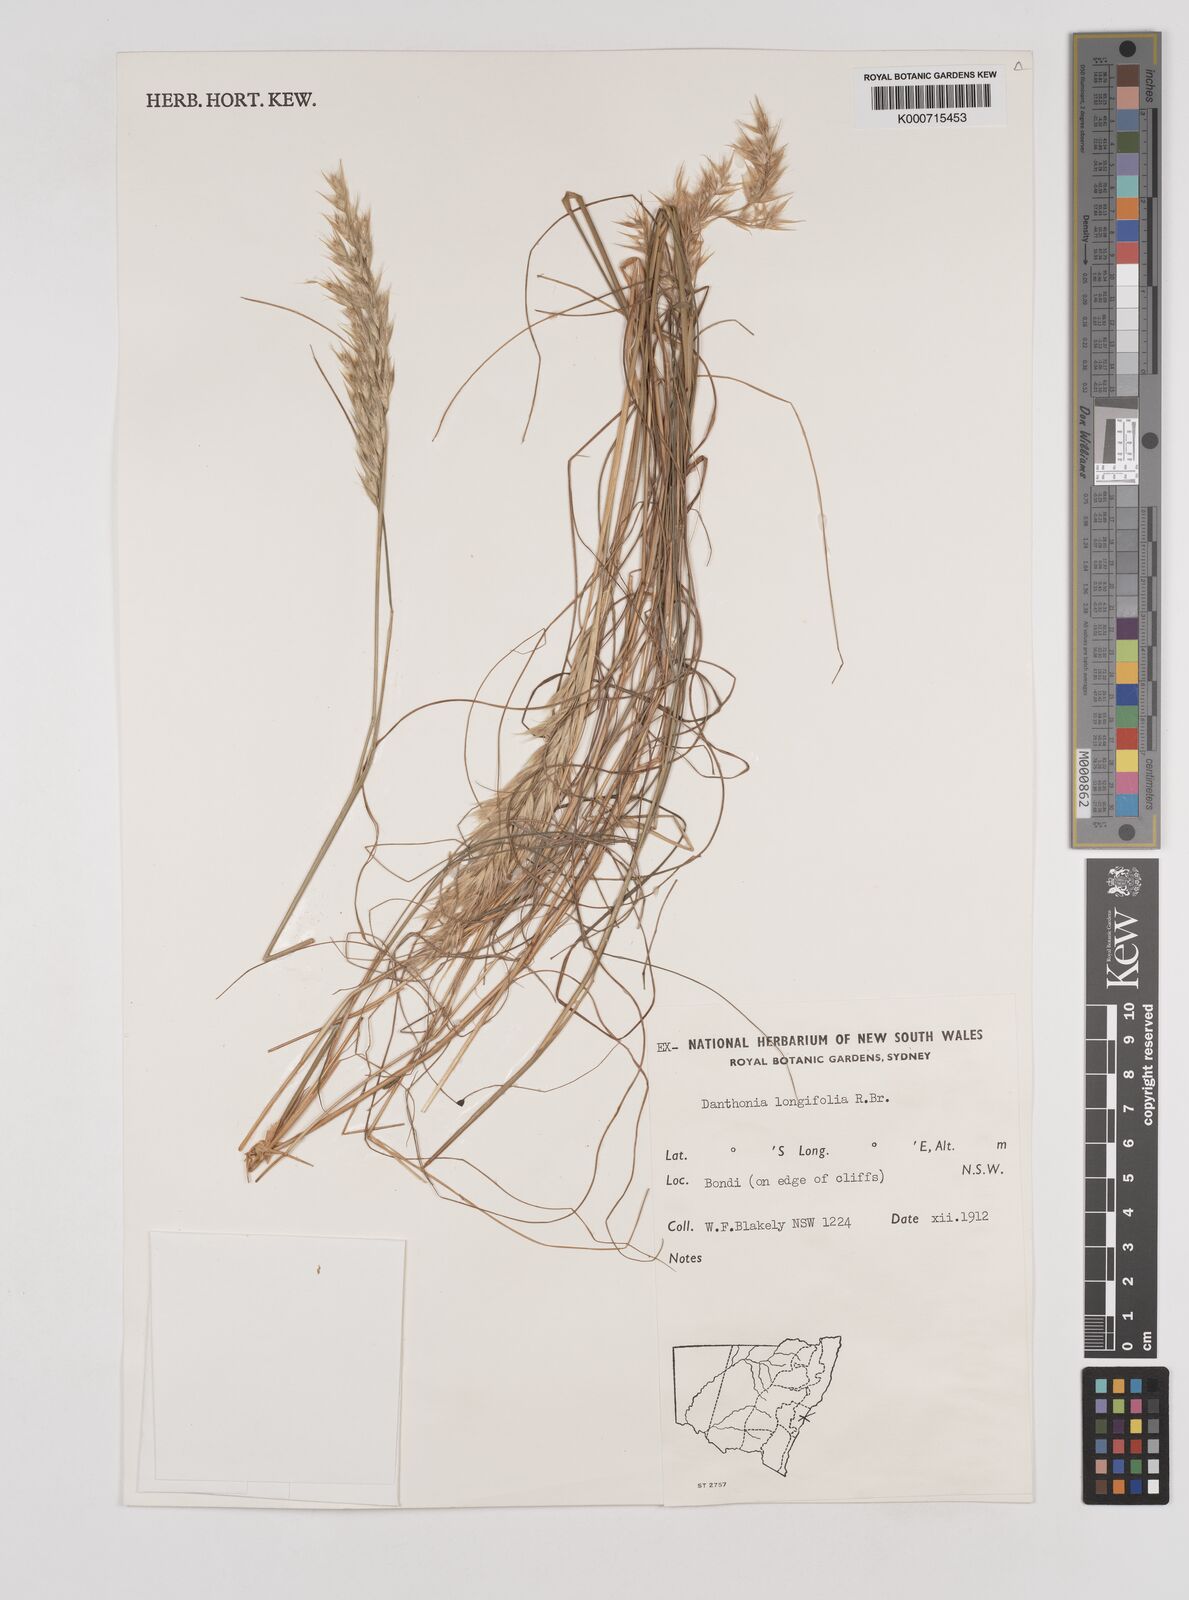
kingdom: Plantae
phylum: Tracheophyta
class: Liliopsida
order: Poales
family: Poaceae
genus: Rytidosperma
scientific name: Rytidosperma longifolium
